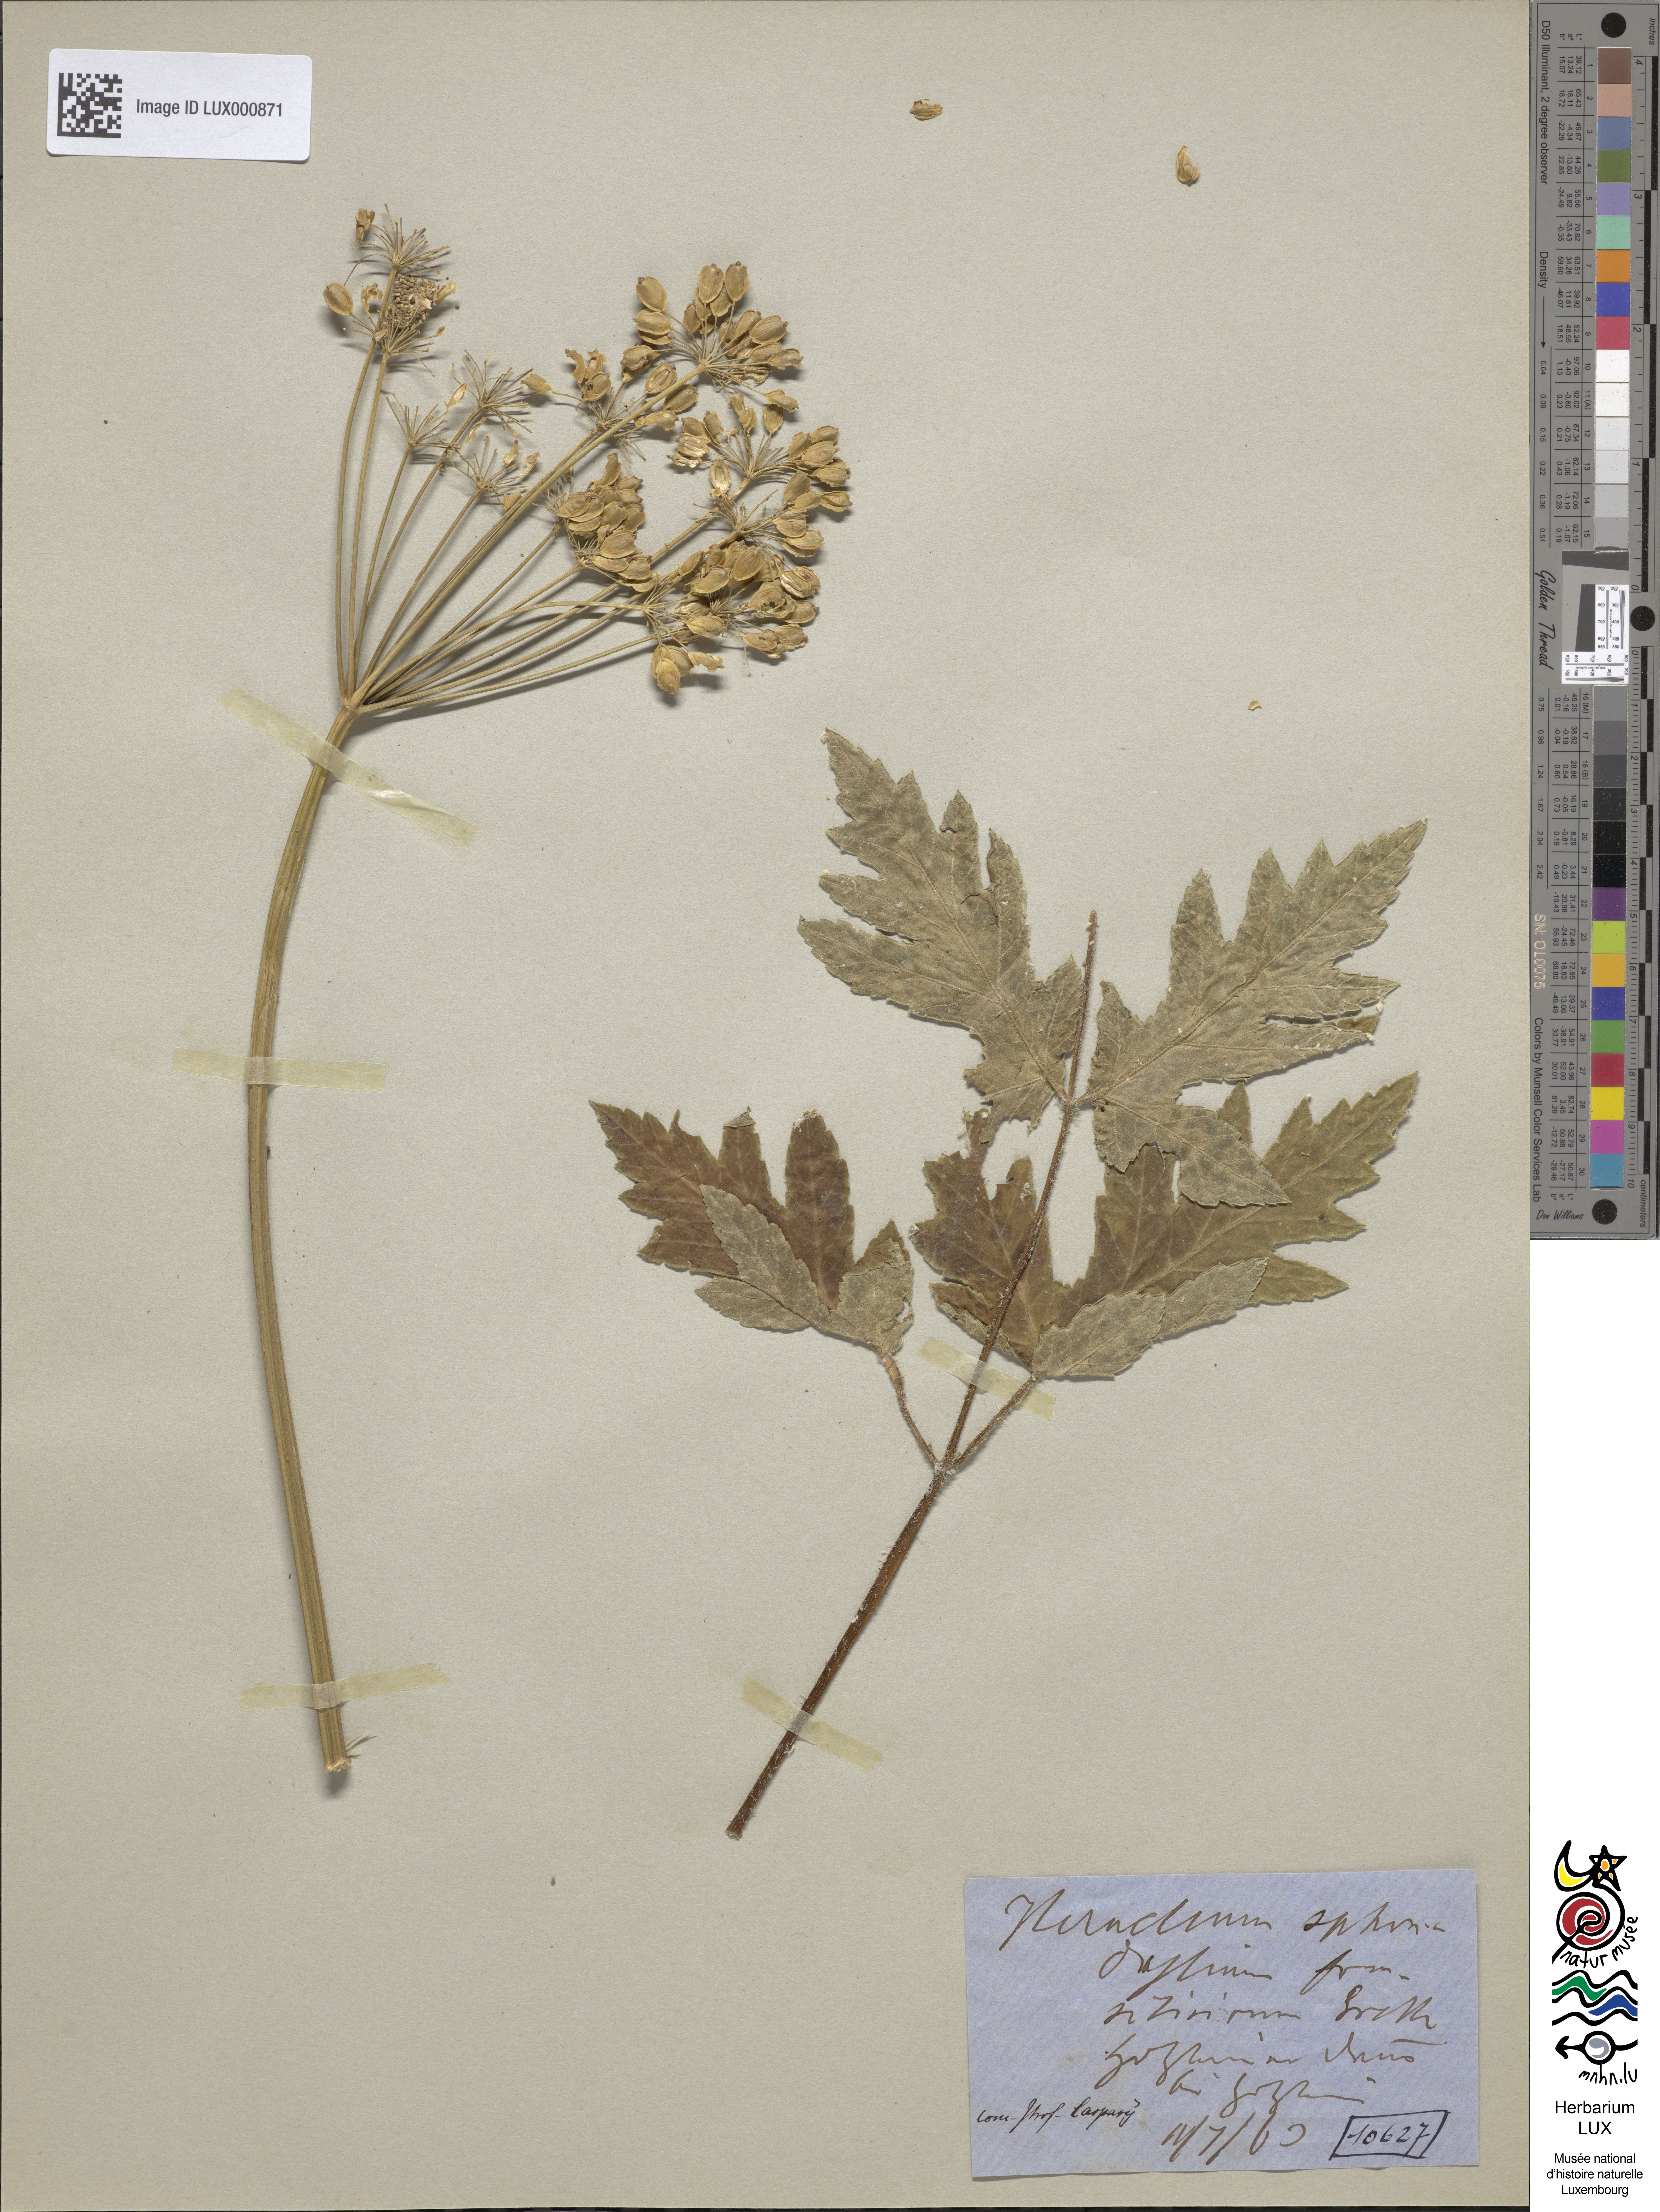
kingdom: Plantae
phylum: Tracheophyta
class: Magnoliopsida
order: Apiales
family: Apiaceae
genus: Heracleum
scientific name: Heracleum sphondylium
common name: Hogweed
